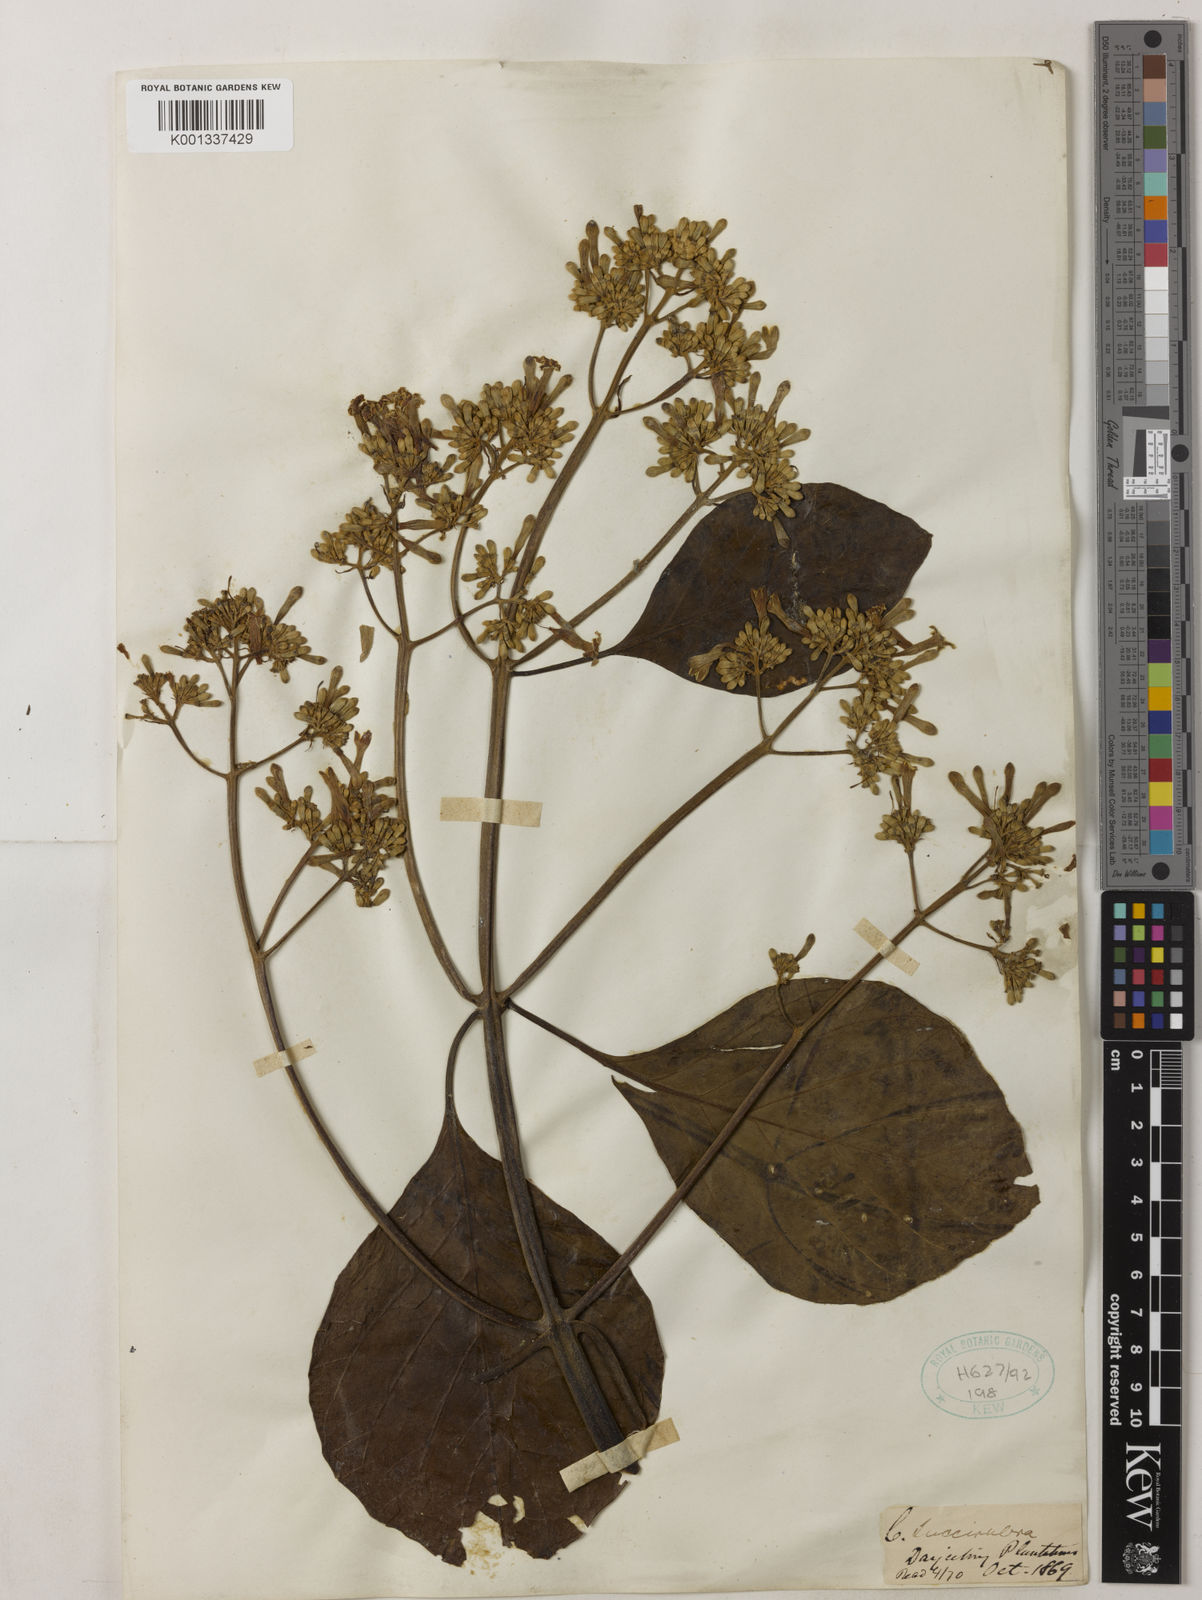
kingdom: Plantae
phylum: Tracheophyta
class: Magnoliopsida
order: Gentianales
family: Rubiaceae
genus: Cinchona
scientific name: Cinchona pubescens
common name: Quinine
